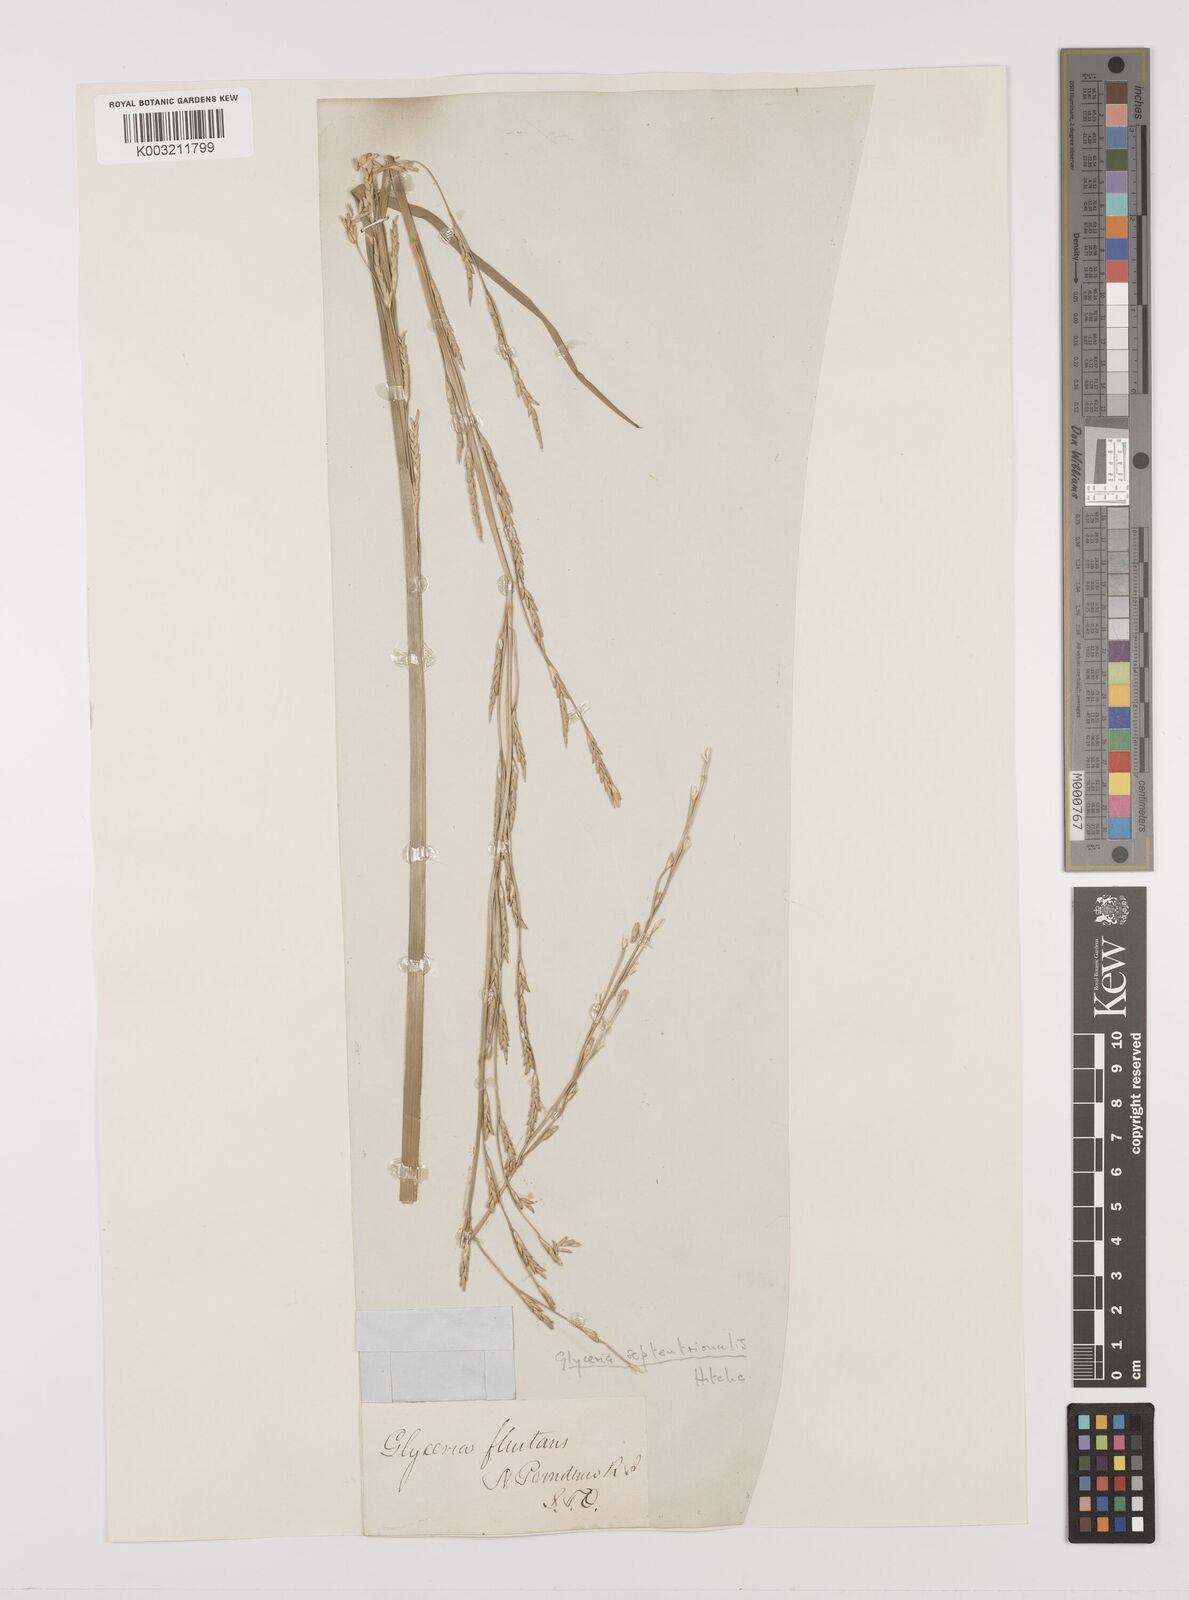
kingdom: Plantae
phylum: Tracheophyta
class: Liliopsida
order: Poales
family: Poaceae
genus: Glyceria
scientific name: Glyceria septentrionalis
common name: Eastern mannagrass
